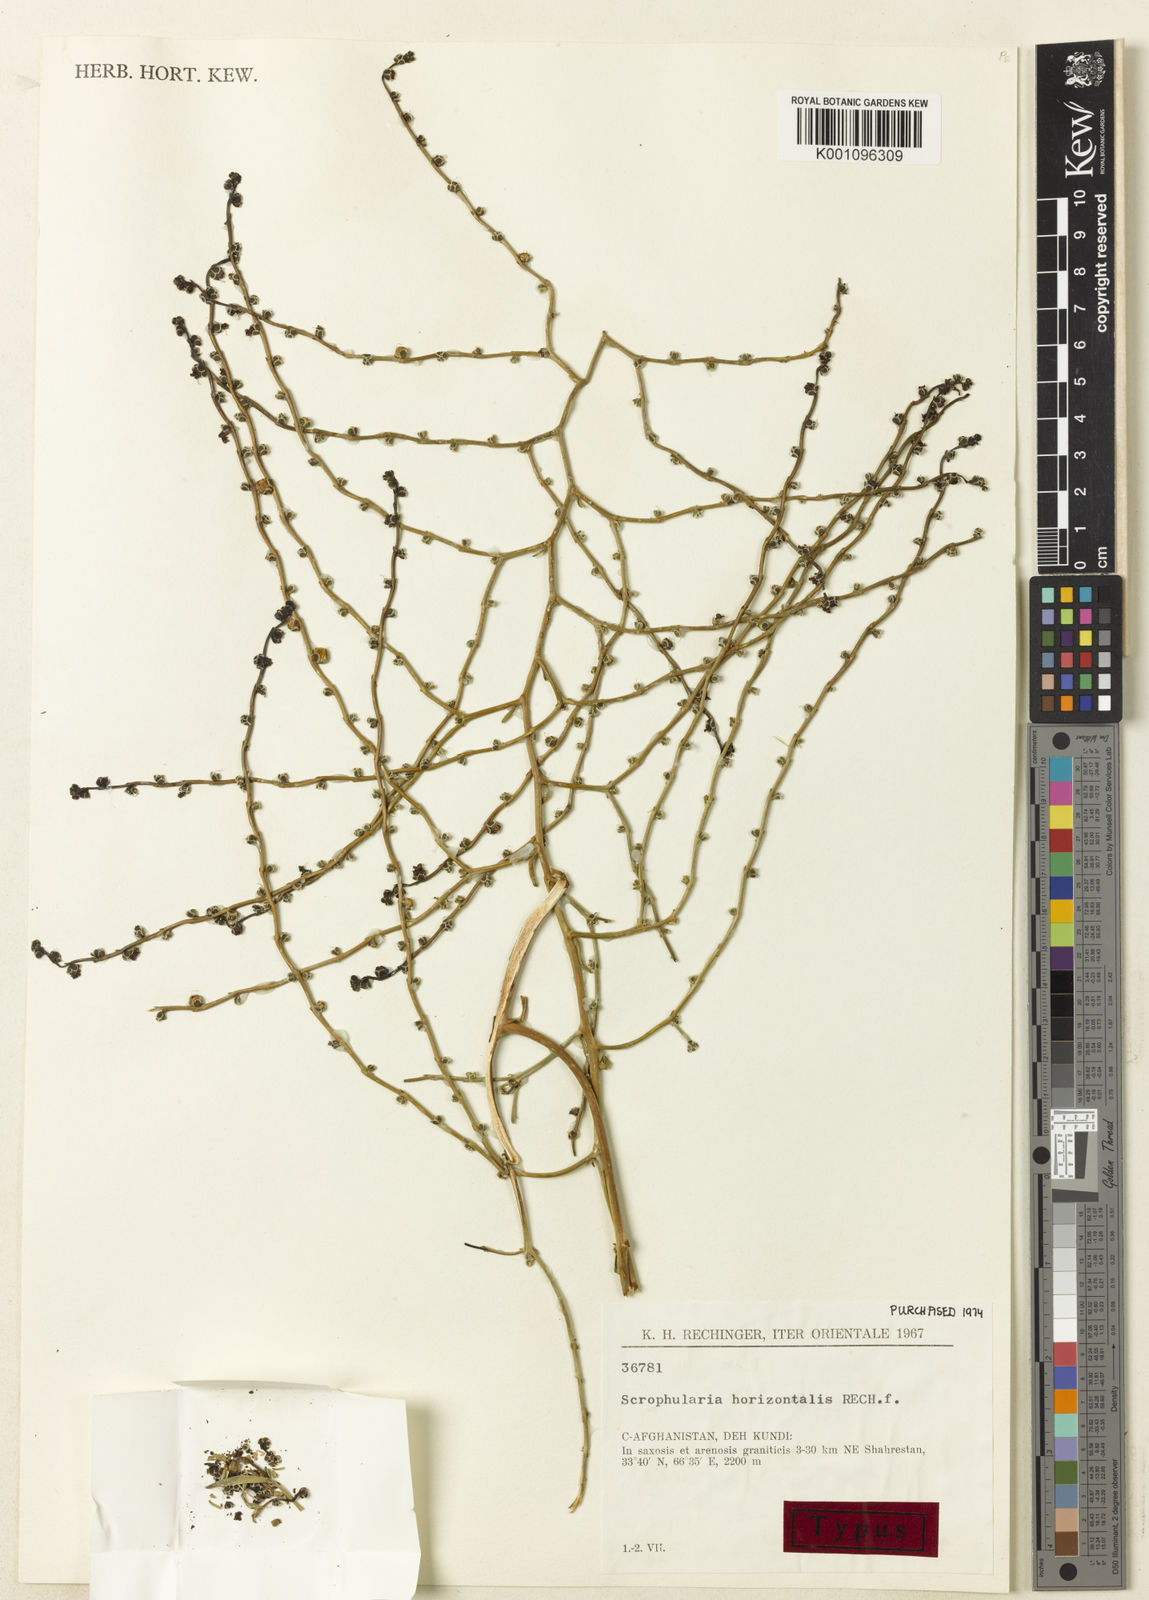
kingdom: Plantae
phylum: Tracheophyta
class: Magnoliopsida
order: Lamiales
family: Scrophulariaceae
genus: Scrophularia
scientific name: Scrophularia horizontalis
